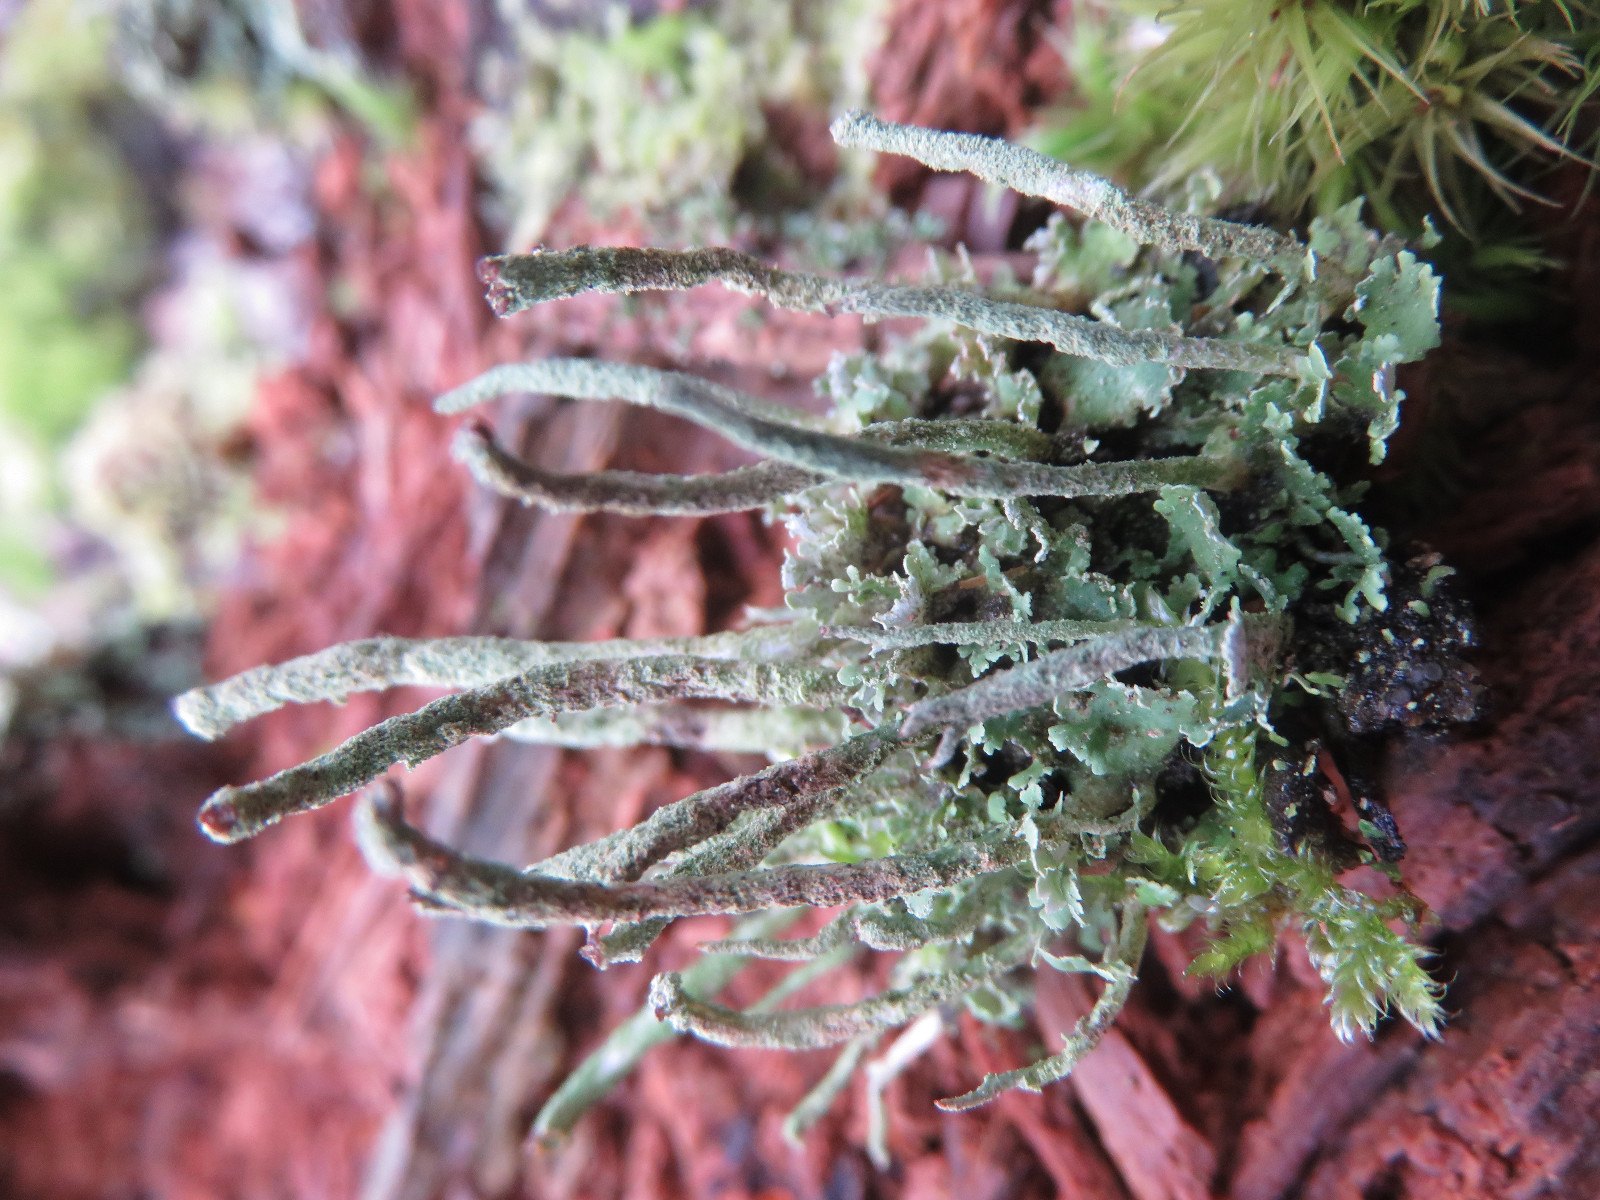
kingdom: Fungi
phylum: Ascomycota
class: Lecanoromycetes
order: Lecanorales
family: Cladoniaceae
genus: Cladonia
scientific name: Cladonia ochrochlora
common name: stød-bægerlav
